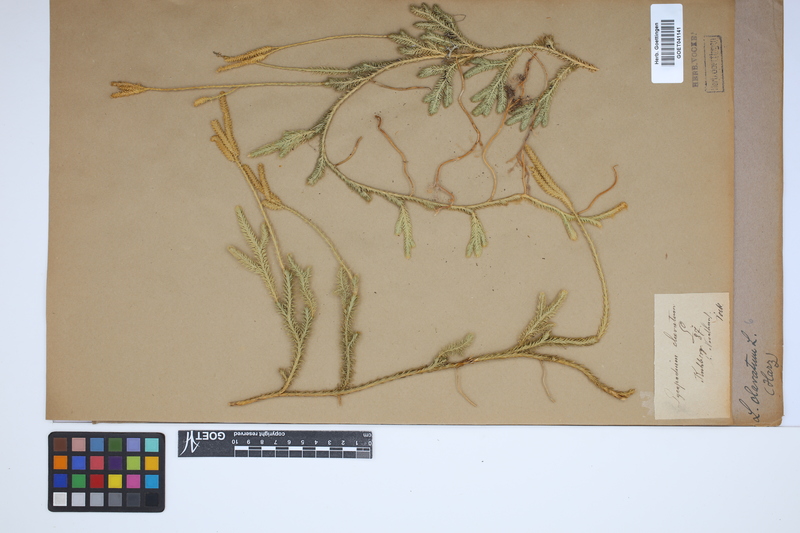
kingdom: Plantae
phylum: Tracheophyta
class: Lycopodiopsida
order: Lycopodiales
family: Lycopodiaceae
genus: Lycopodium
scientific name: Lycopodium clavatum
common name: Stag's-horn clubmoss
